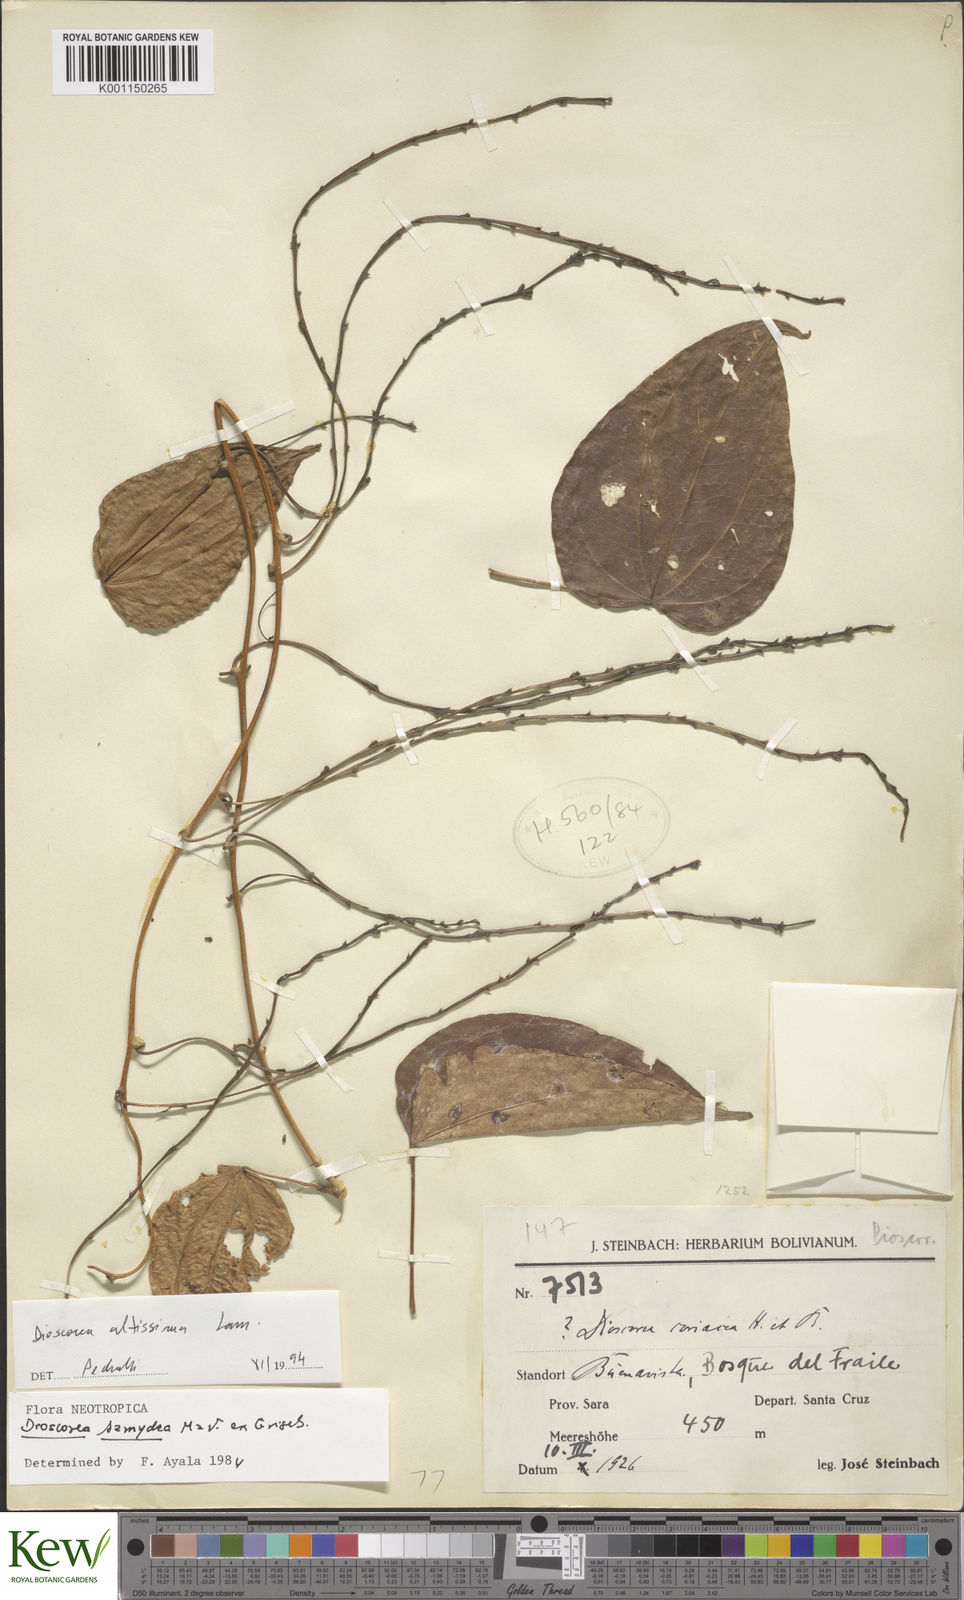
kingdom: Plantae
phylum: Tracheophyta
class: Liliopsida
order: Dioscoreales
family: Dioscoreaceae
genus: Dioscorea
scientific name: Dioscorea chondrocarpa
